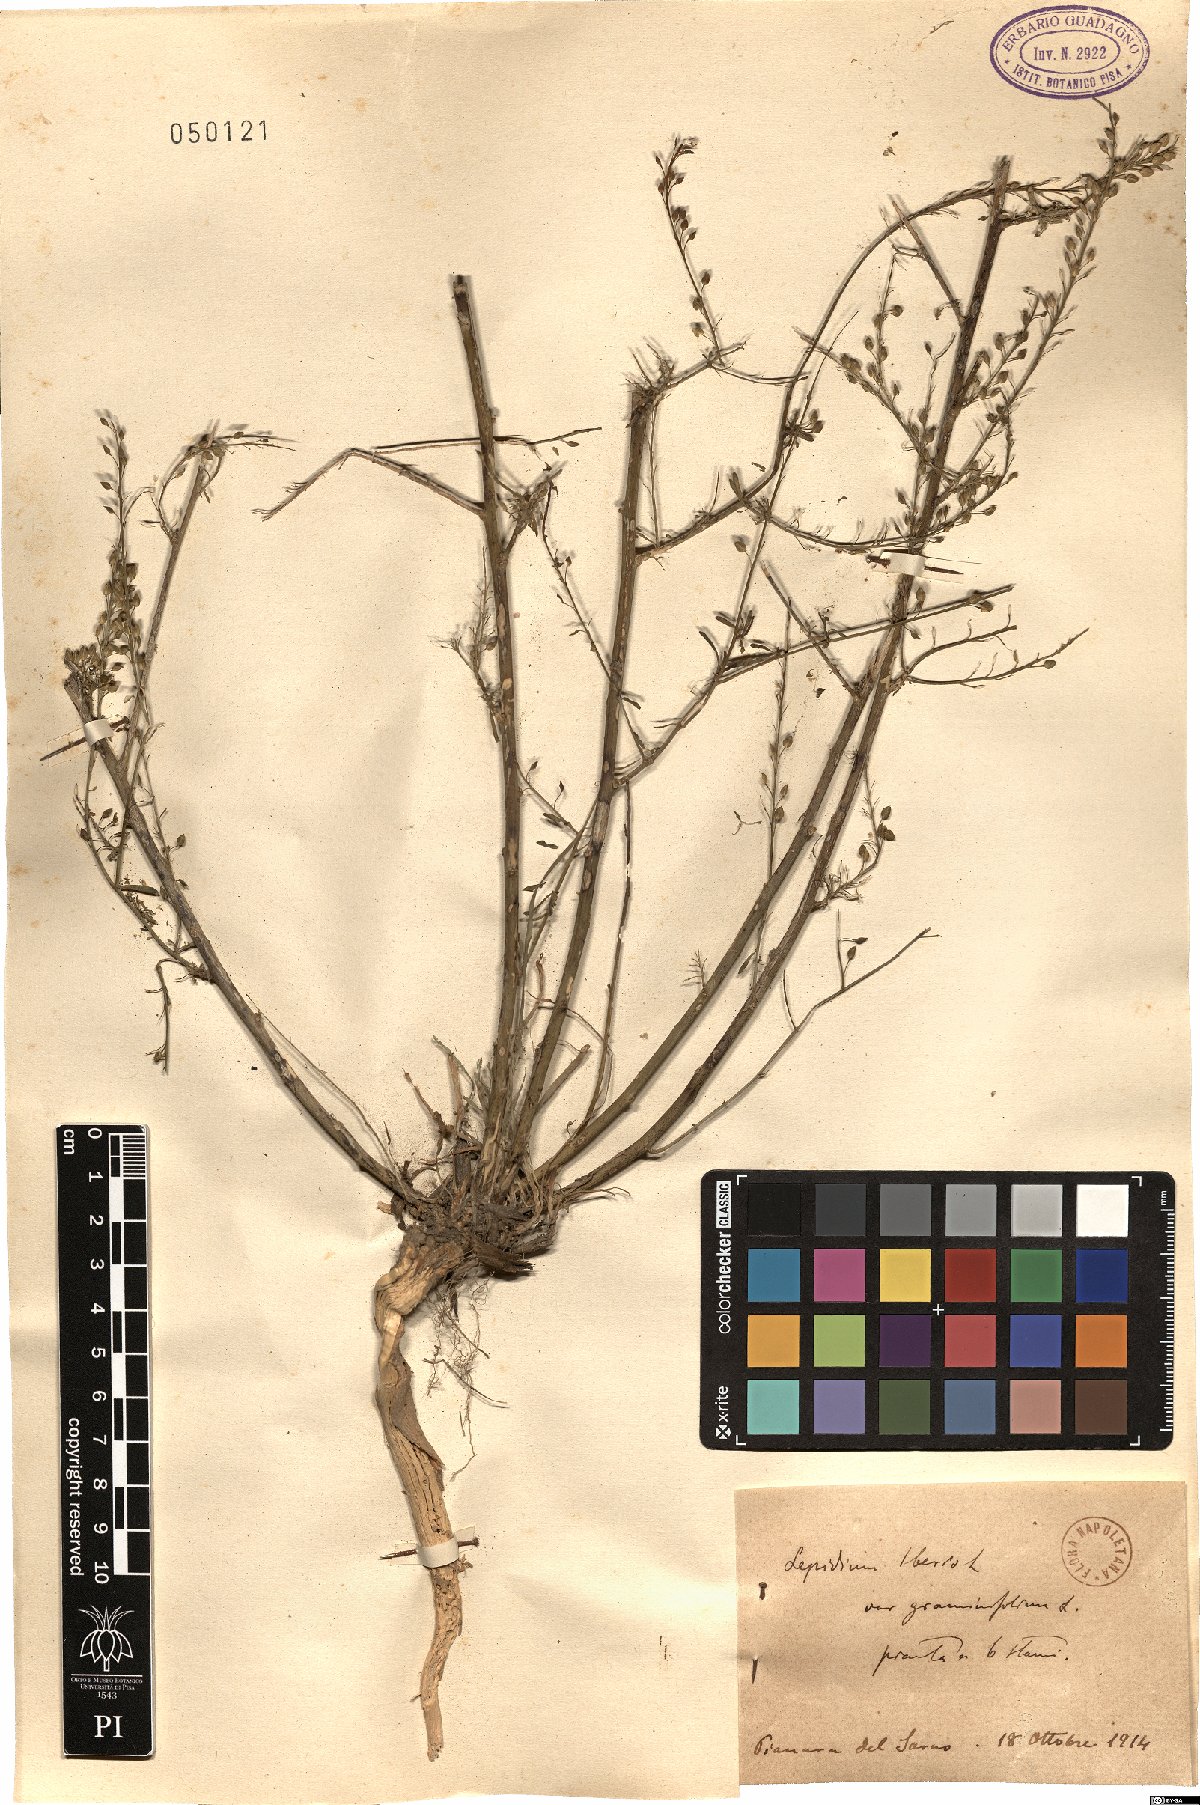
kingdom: Plantae
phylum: Tracheophyta
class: Magnoliopsida
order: Brassicales
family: Brassicaceae
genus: Lepidium
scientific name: Lepidium graminifolium
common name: Tall pepperwort
